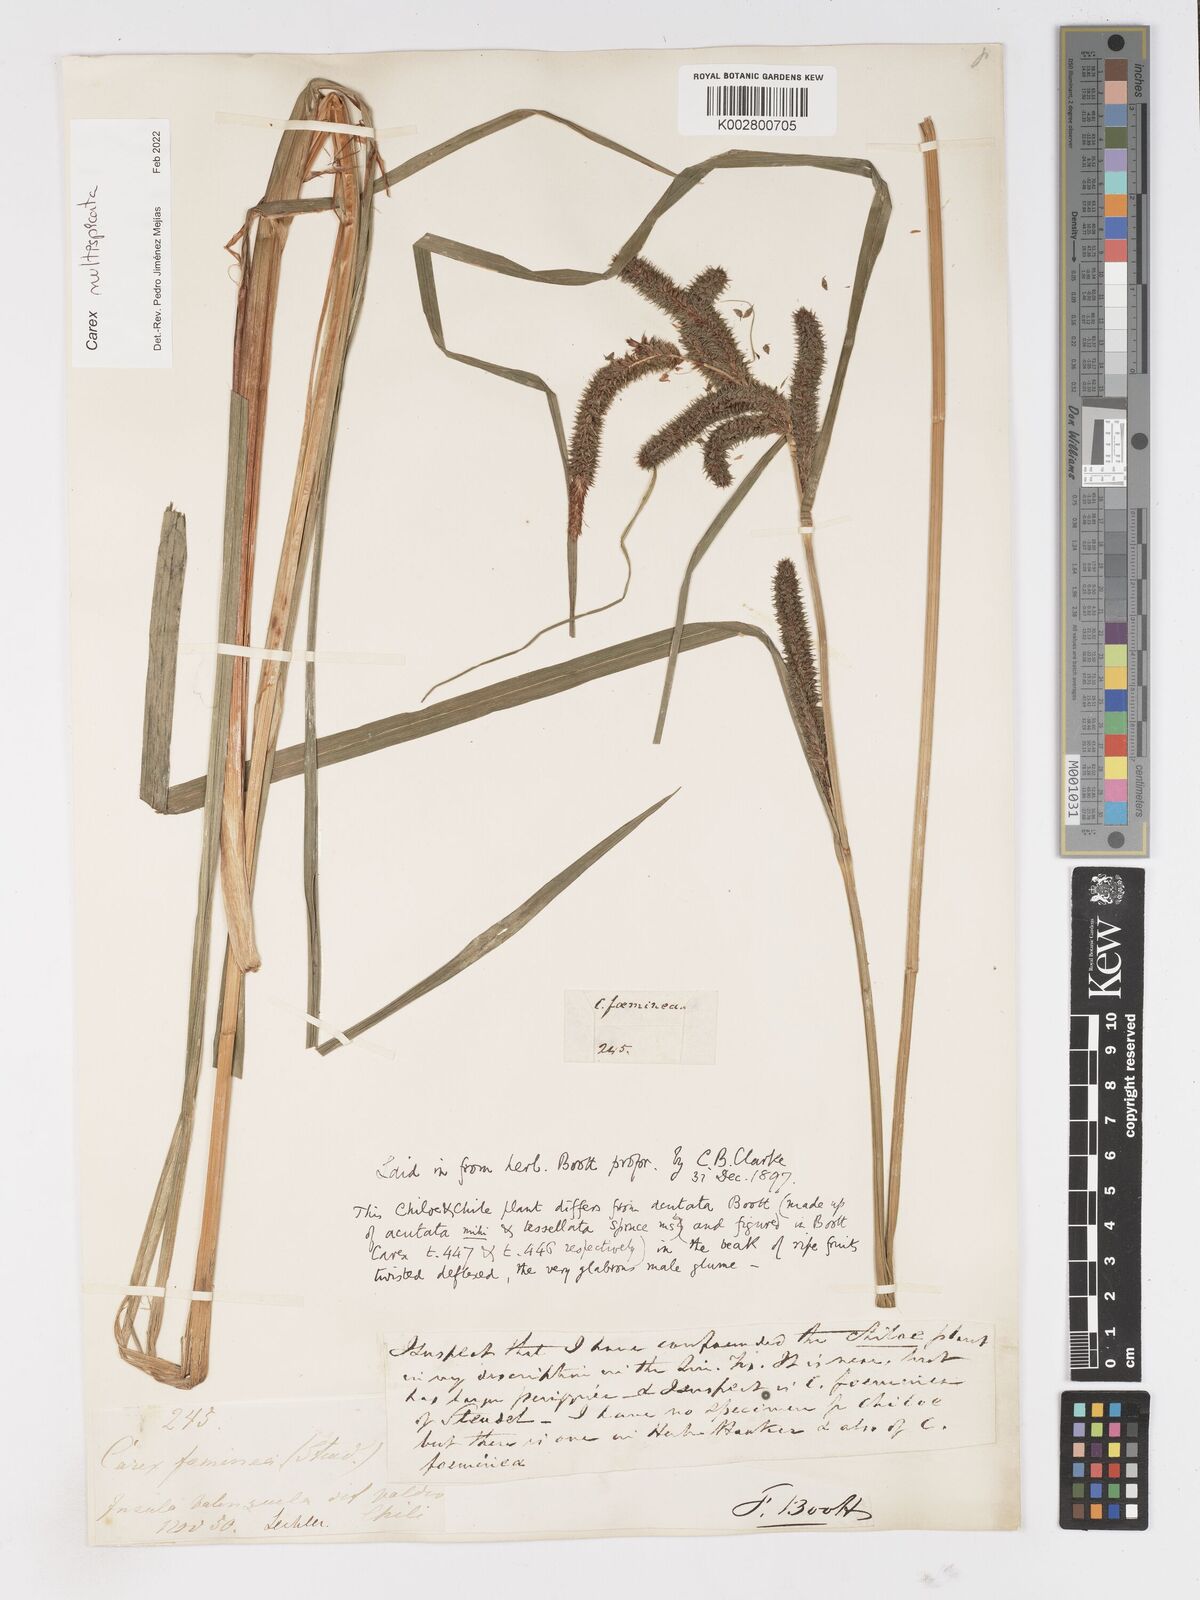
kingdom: Plantae
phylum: Tracheophyta
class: Liliopsida
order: Poales
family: Cyperaceae
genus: Carex
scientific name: Carex multispicata
